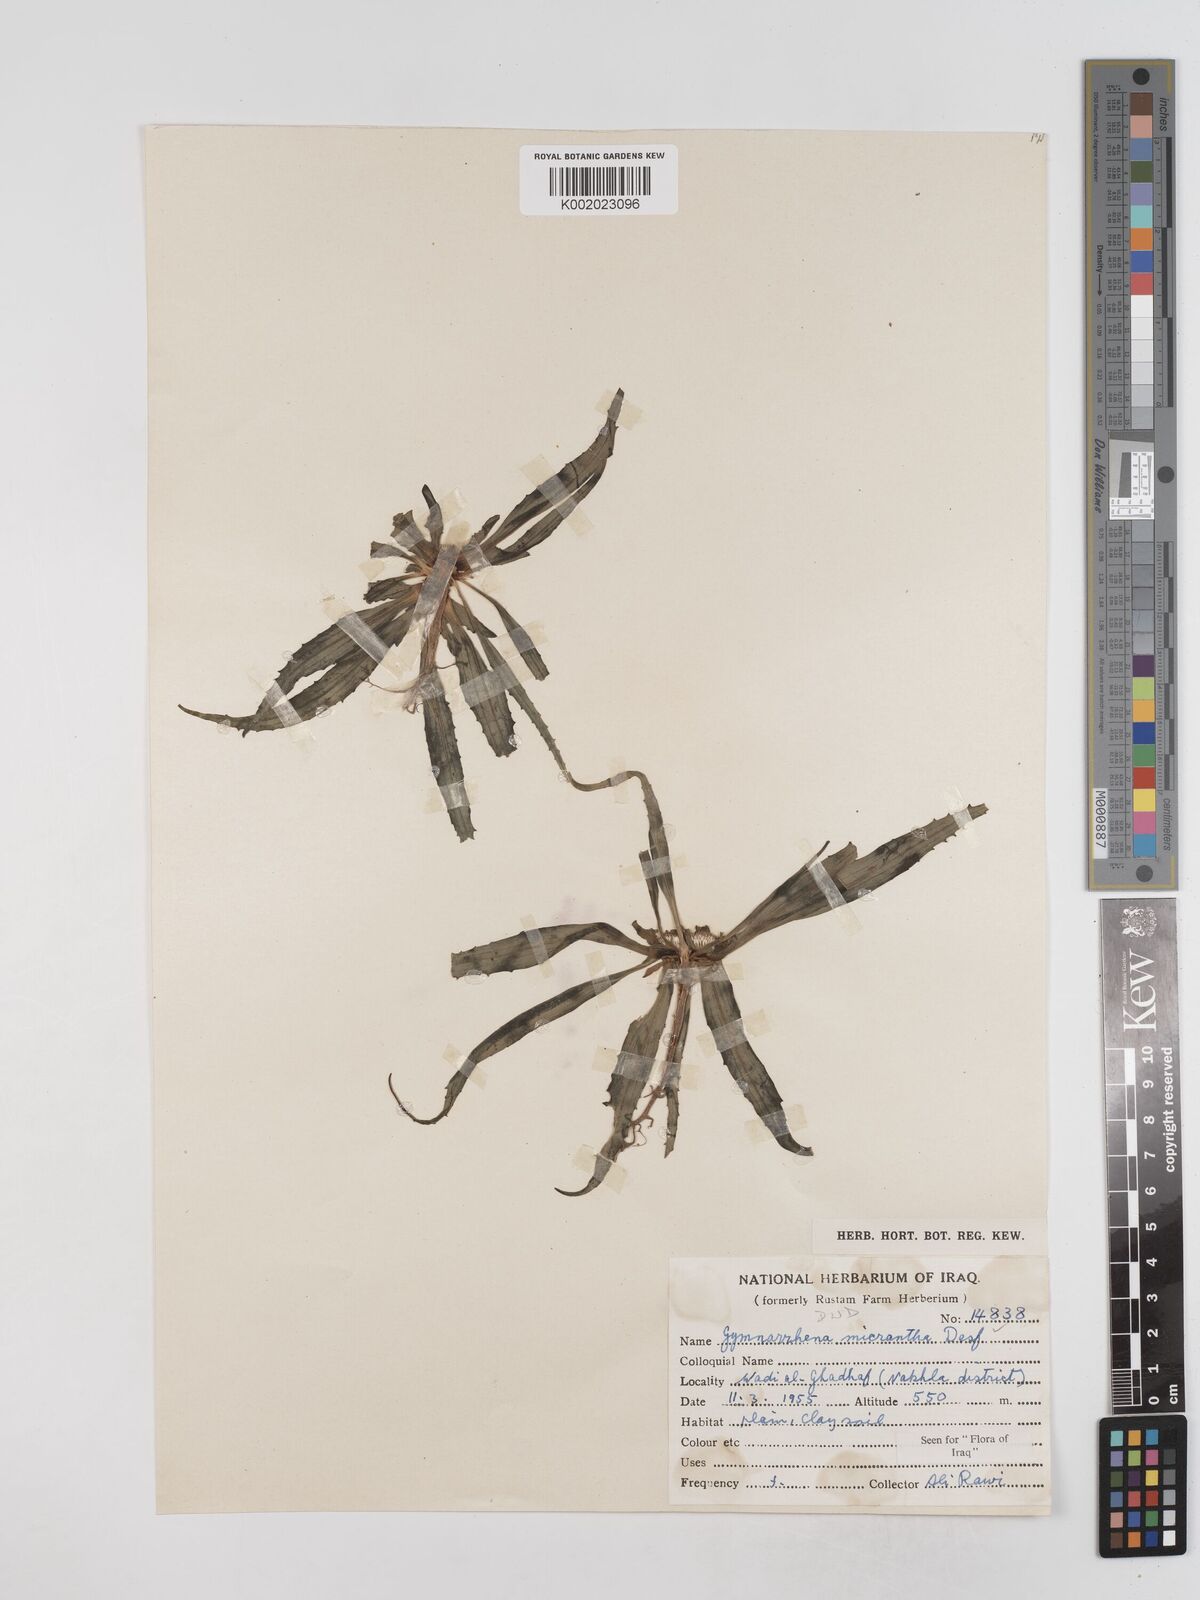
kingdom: Plantae
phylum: Tracheophyta
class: Magnoliopsida
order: Asterales
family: Asteraceae
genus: Gymnarrhena
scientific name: Gymnarrhena micrantha
